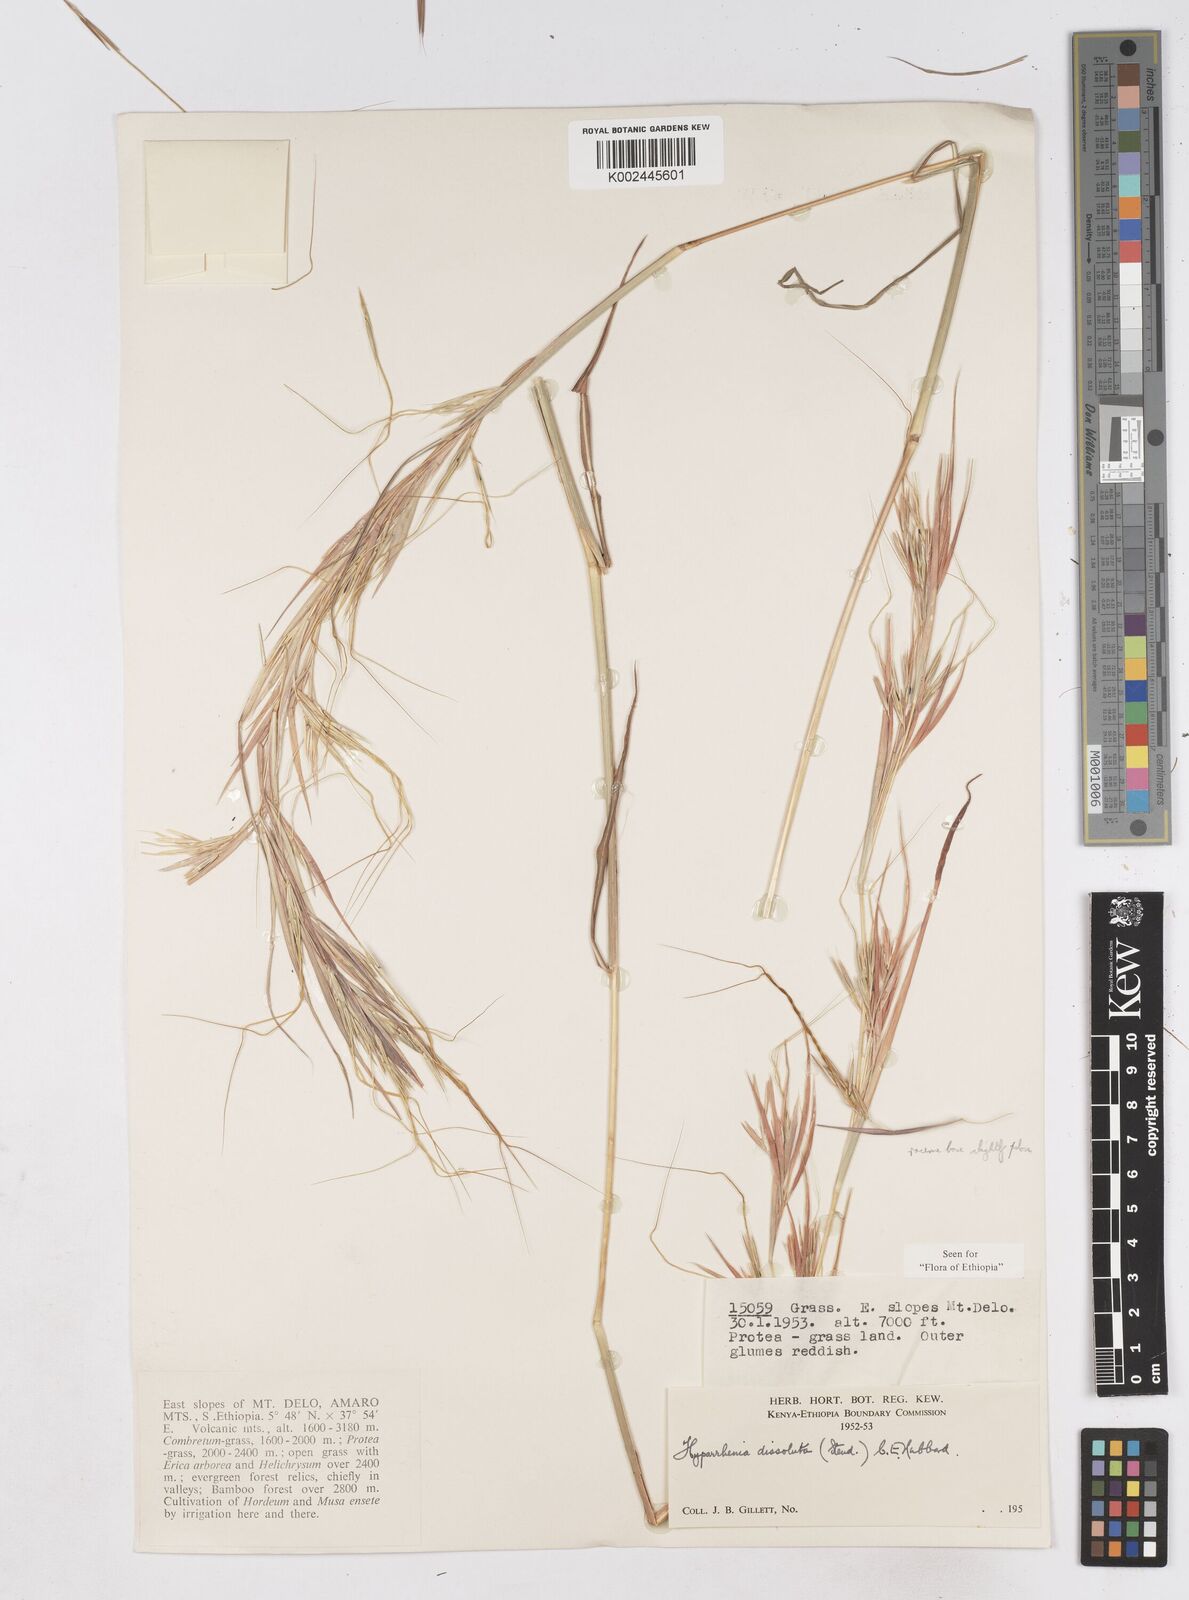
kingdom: Plantae
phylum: Tracheophyta
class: Liliopsida
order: Poales
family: Poaceae
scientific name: Poaceae
